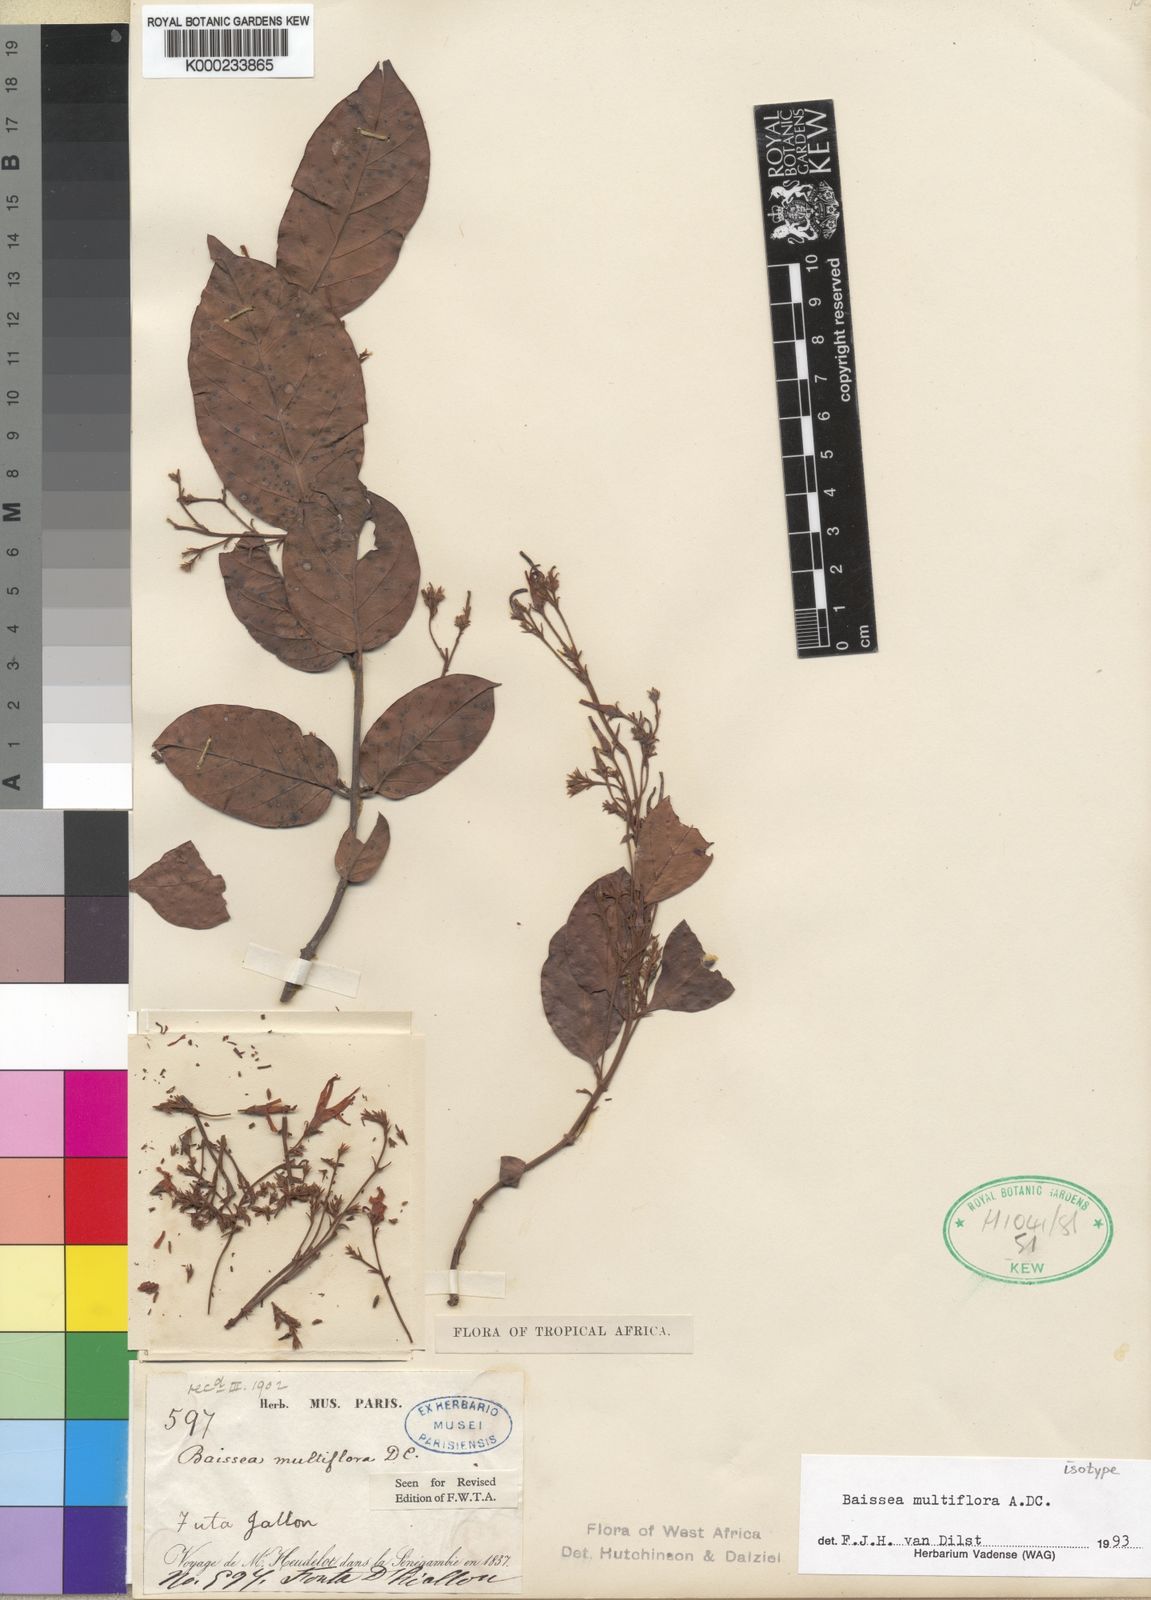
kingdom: Plantae
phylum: Tracheophyta
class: Magnoliopsida
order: Gentianales
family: Apocynaceae
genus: Baissea
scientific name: Baissea multiflora
